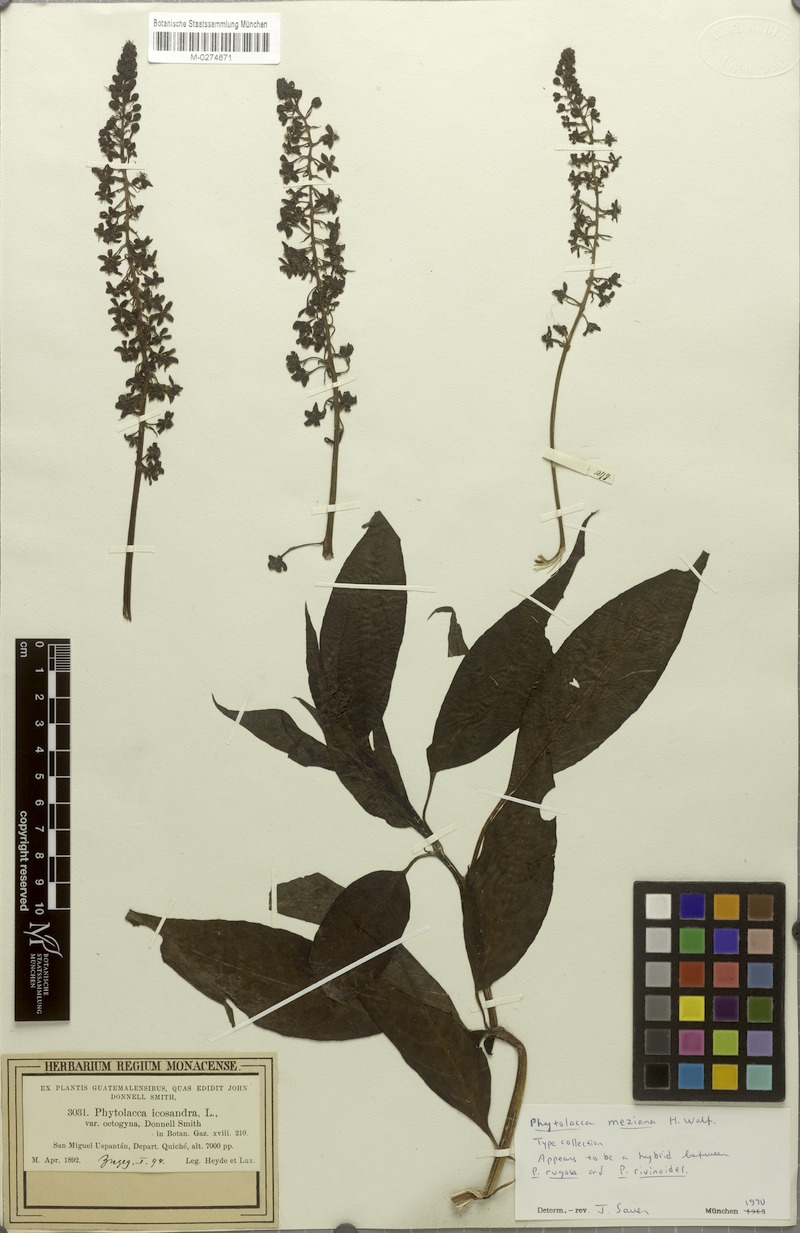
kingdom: Plantae
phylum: Tracheophyta
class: Magnoliopsida
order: Caryophyllales
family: Phytolaccaceae
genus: Phytolacca
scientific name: Phytolacca meziana
